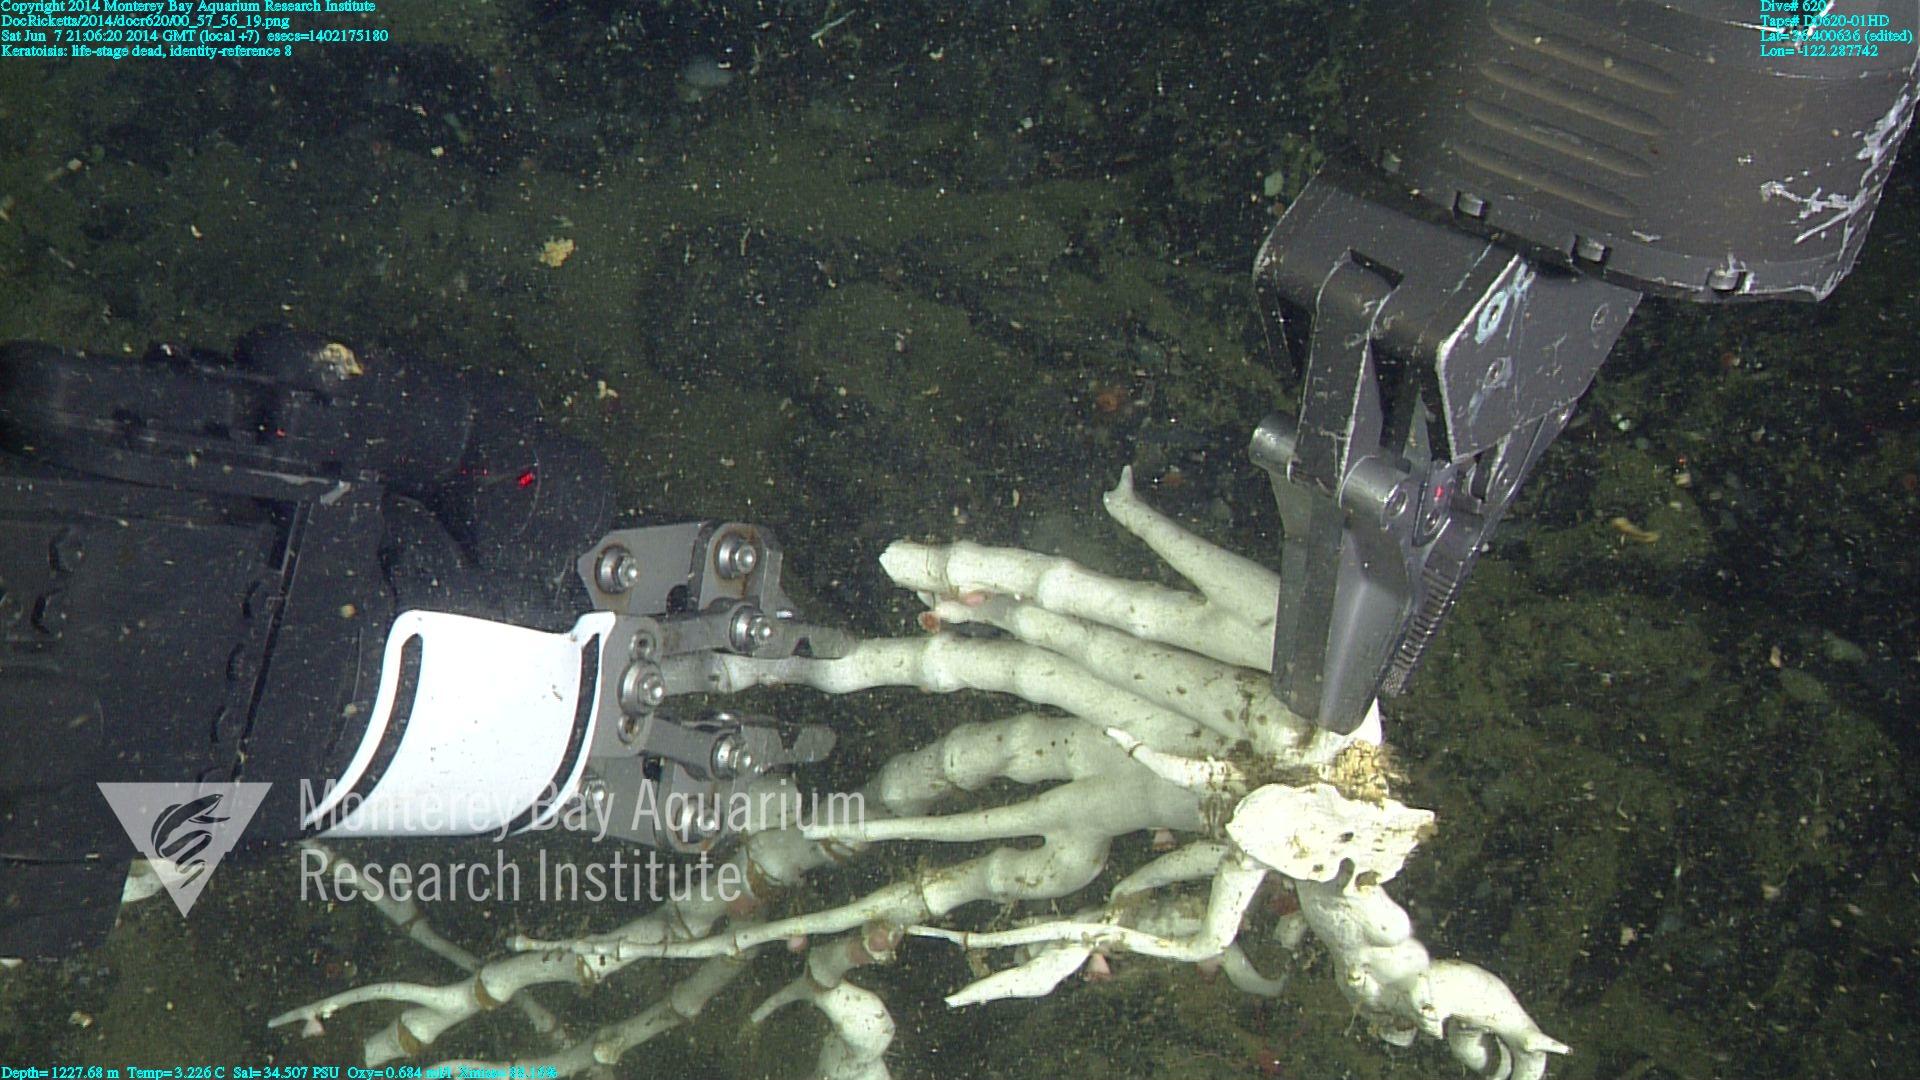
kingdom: Animalia
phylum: Cnidaria
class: Anthozoa
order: Scleralcyonacea
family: Keratoisididae
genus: Keratoisis
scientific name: Keratoisis
